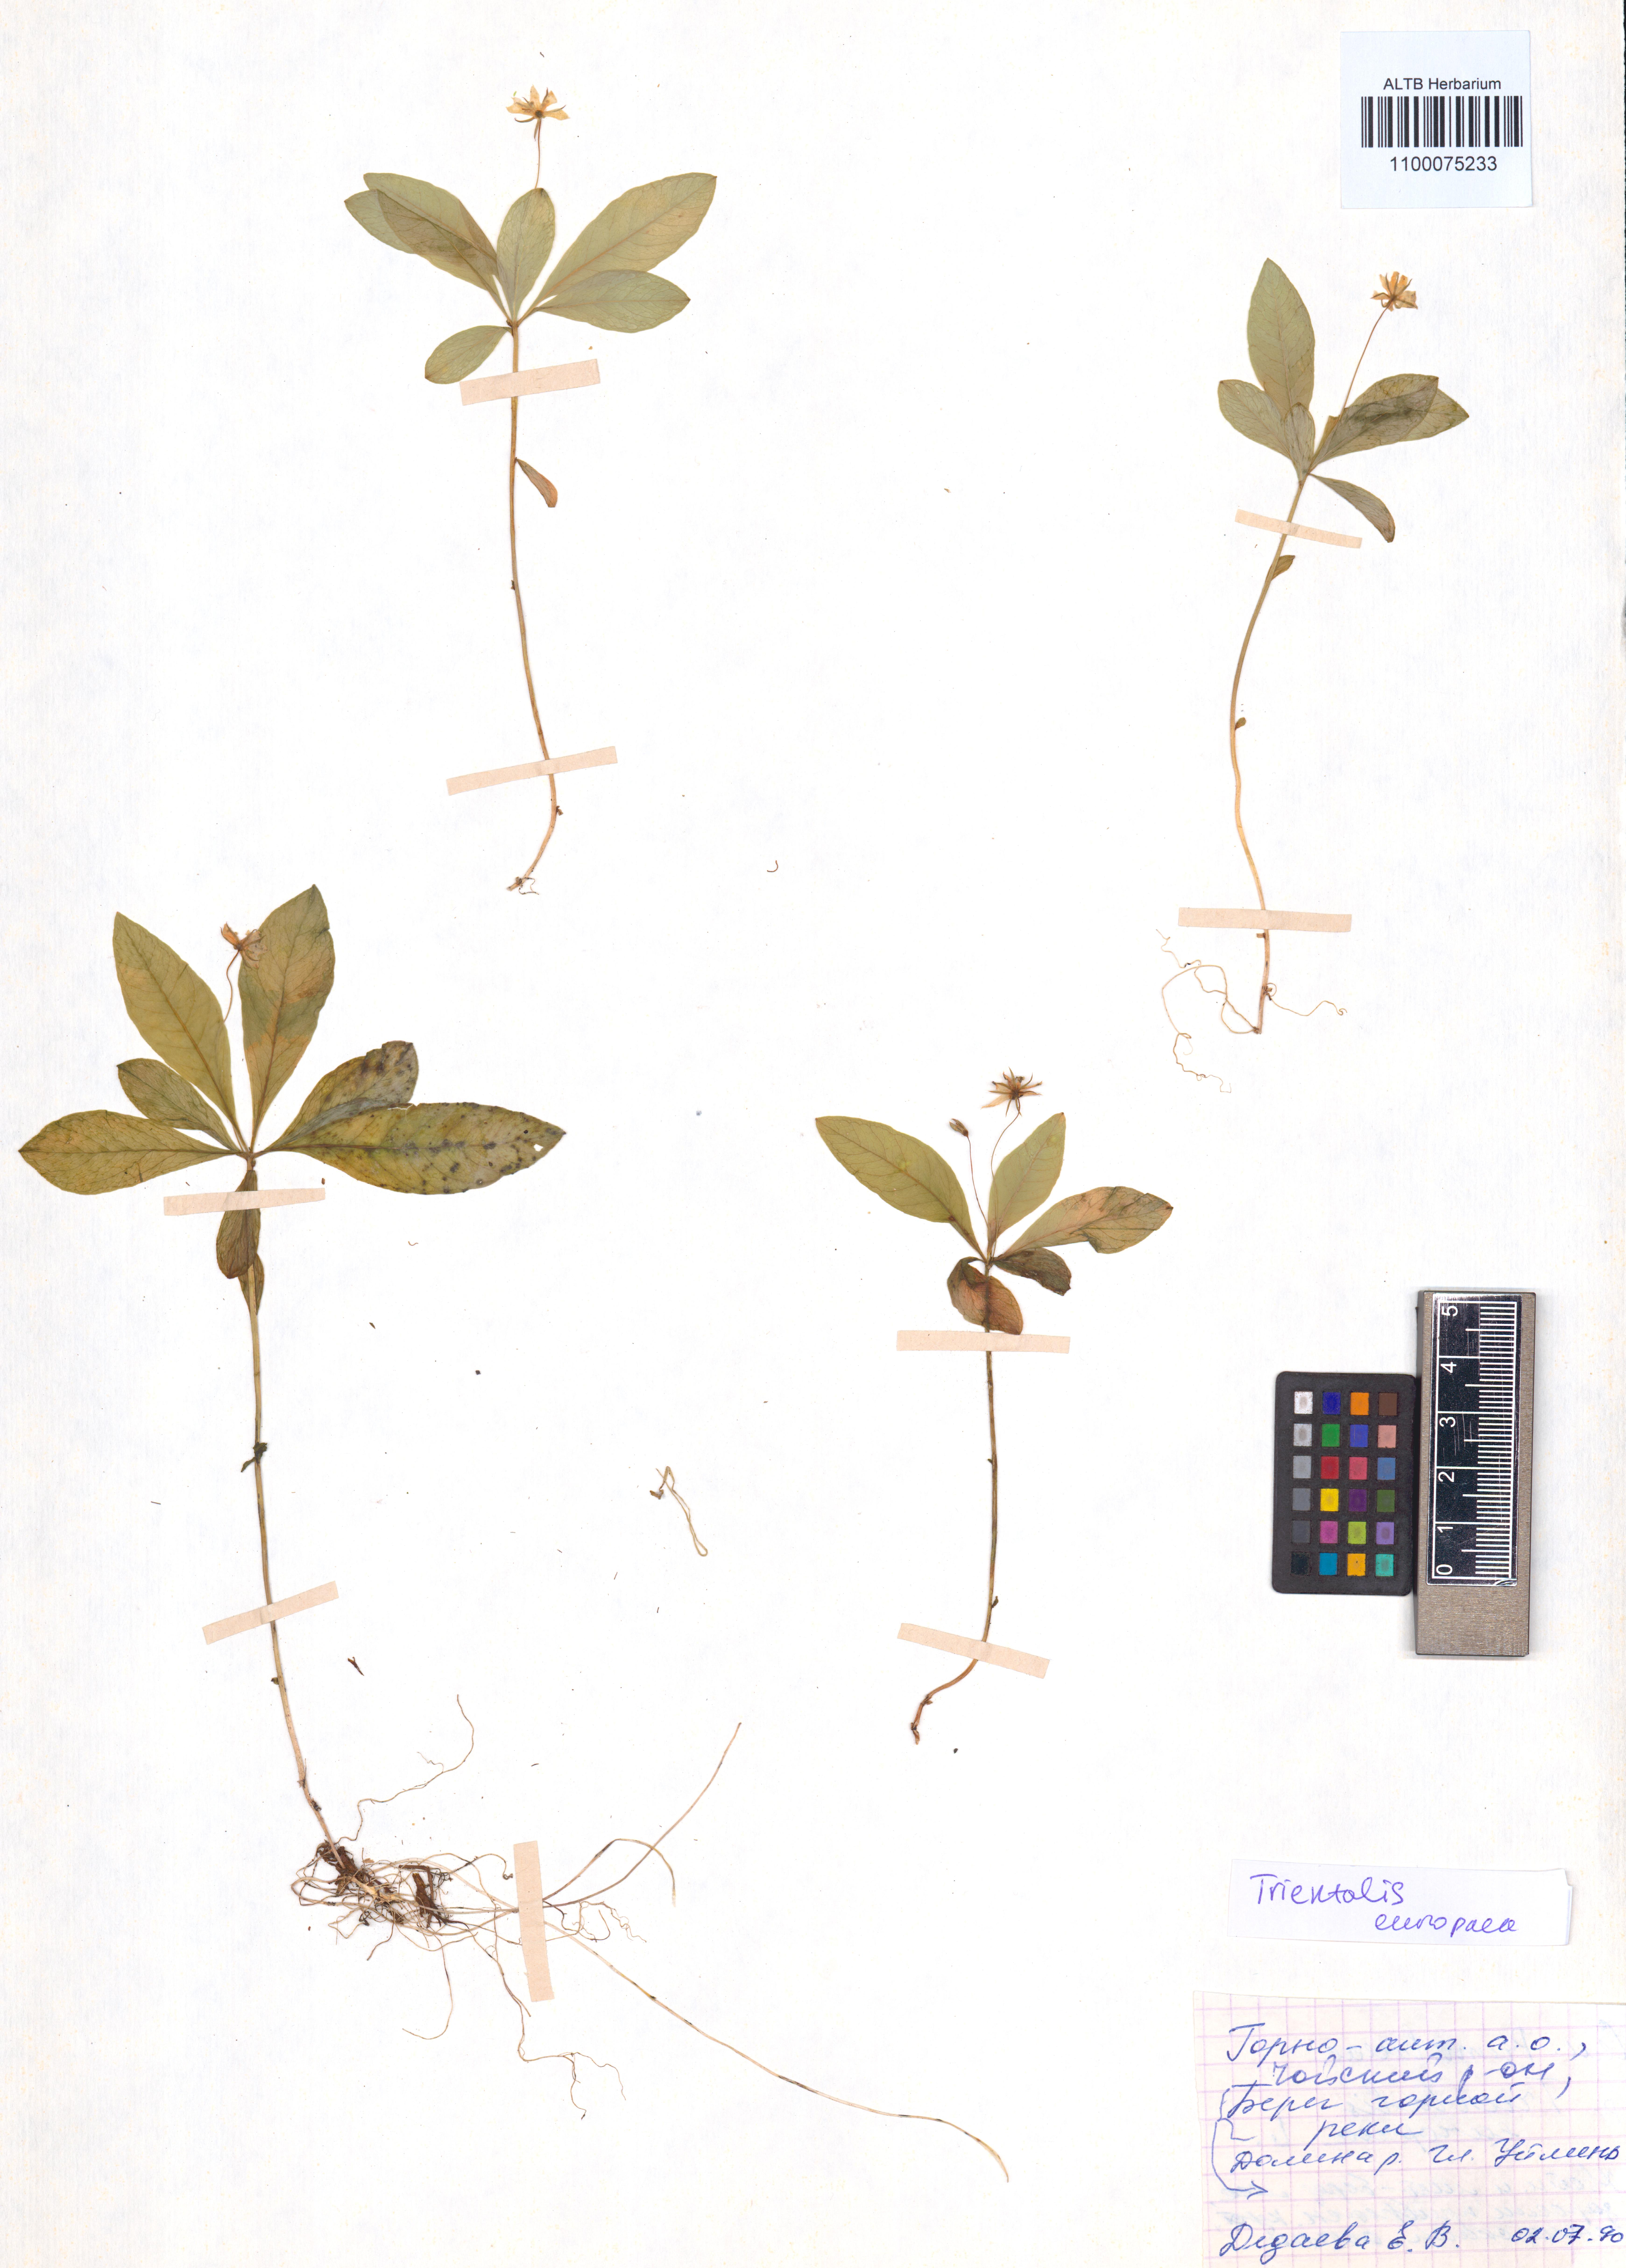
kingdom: Plantae
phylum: Tracheophyta
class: Magnoliopsida
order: Ericales
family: Primulaceae
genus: Lysimachia
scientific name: Lysimachia europaea
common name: Arctic starflower
